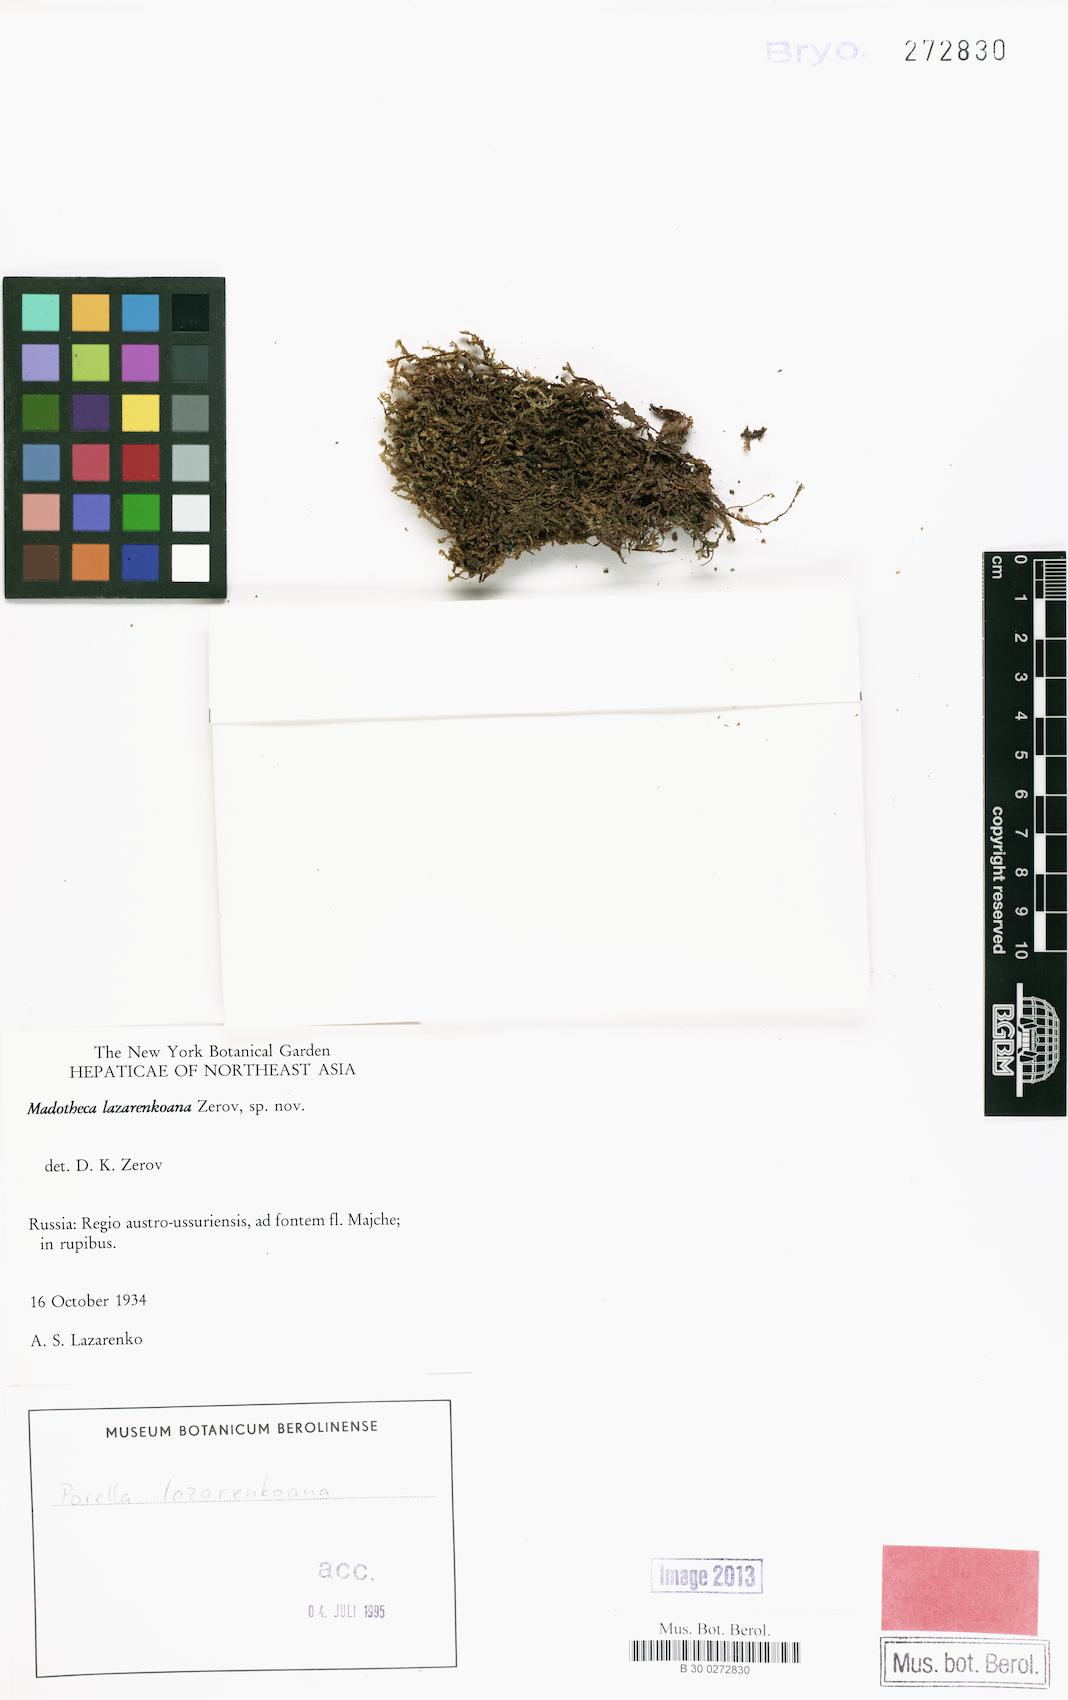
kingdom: Plantae
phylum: Marchantiophyta
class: Jungermanniopsida
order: Porellales
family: Porellaceae
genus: Porella
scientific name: Porella
